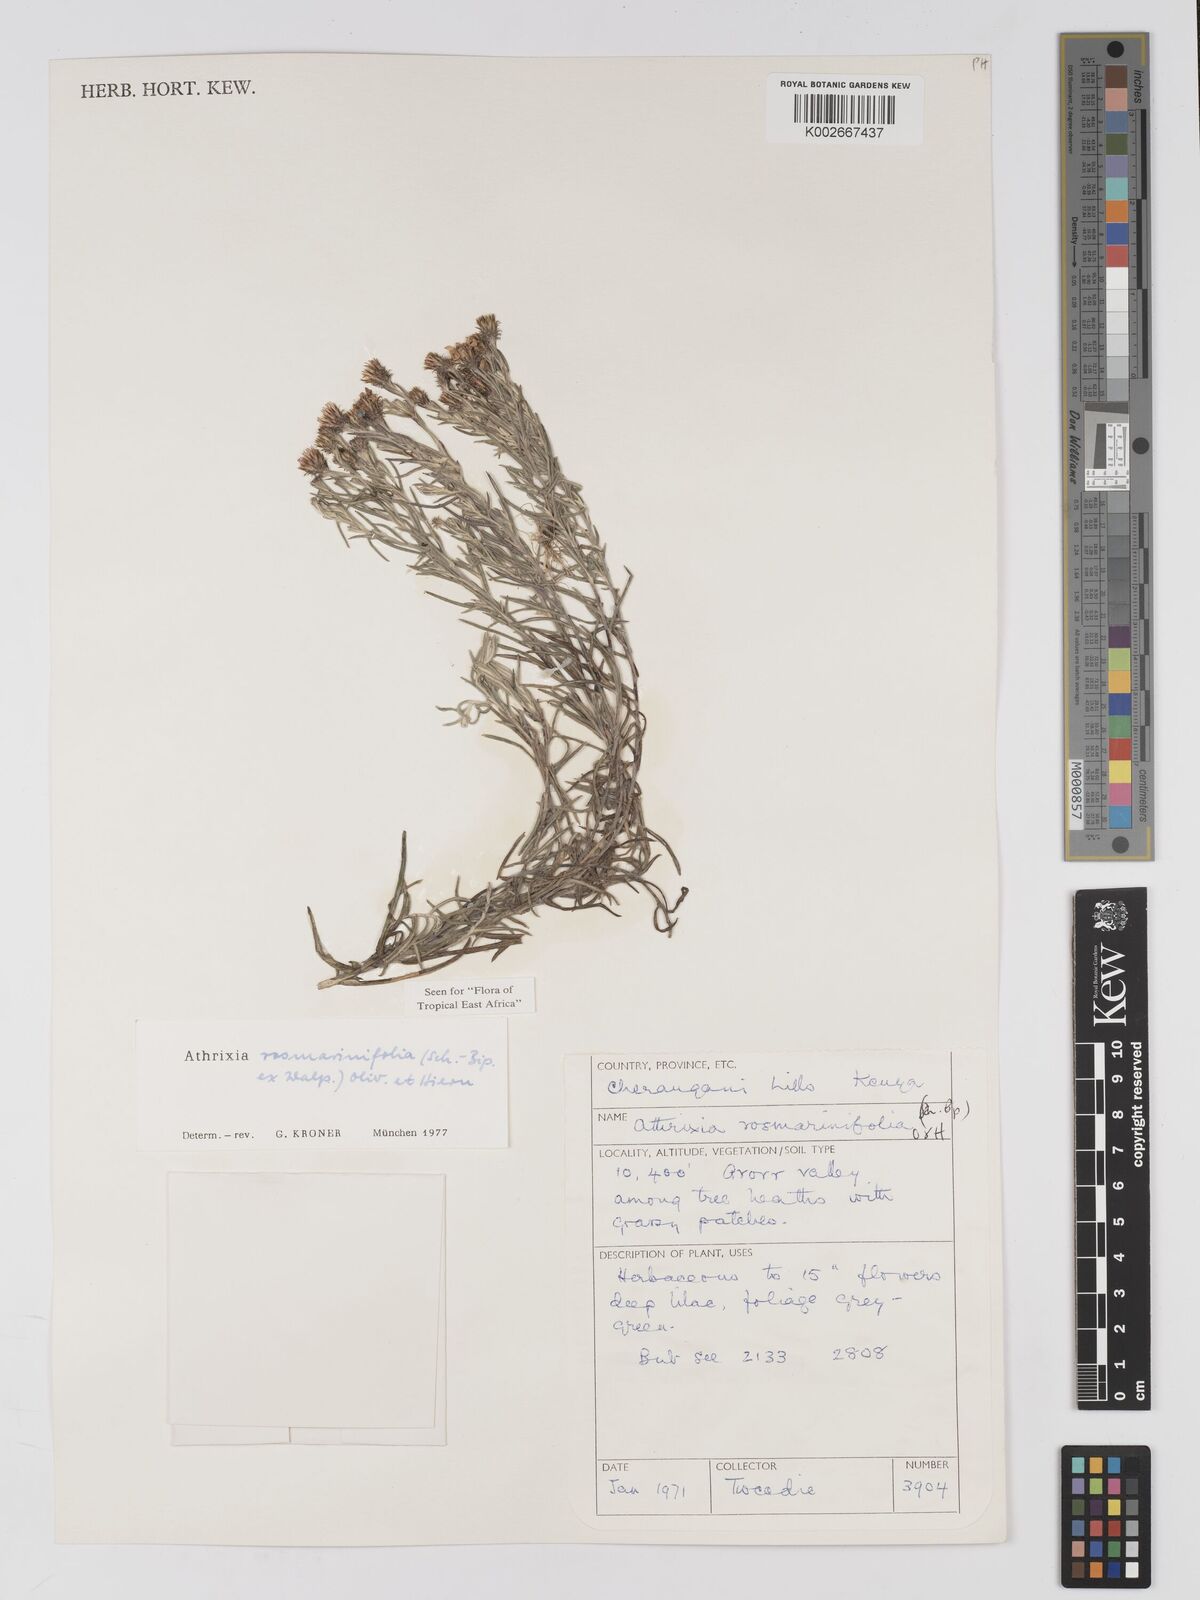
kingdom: Plantae
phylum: Tracheophyta
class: Magnoliopsida
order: Asterales
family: Asteraceae
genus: Athrixia
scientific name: Athrixia rosmarinifolia
